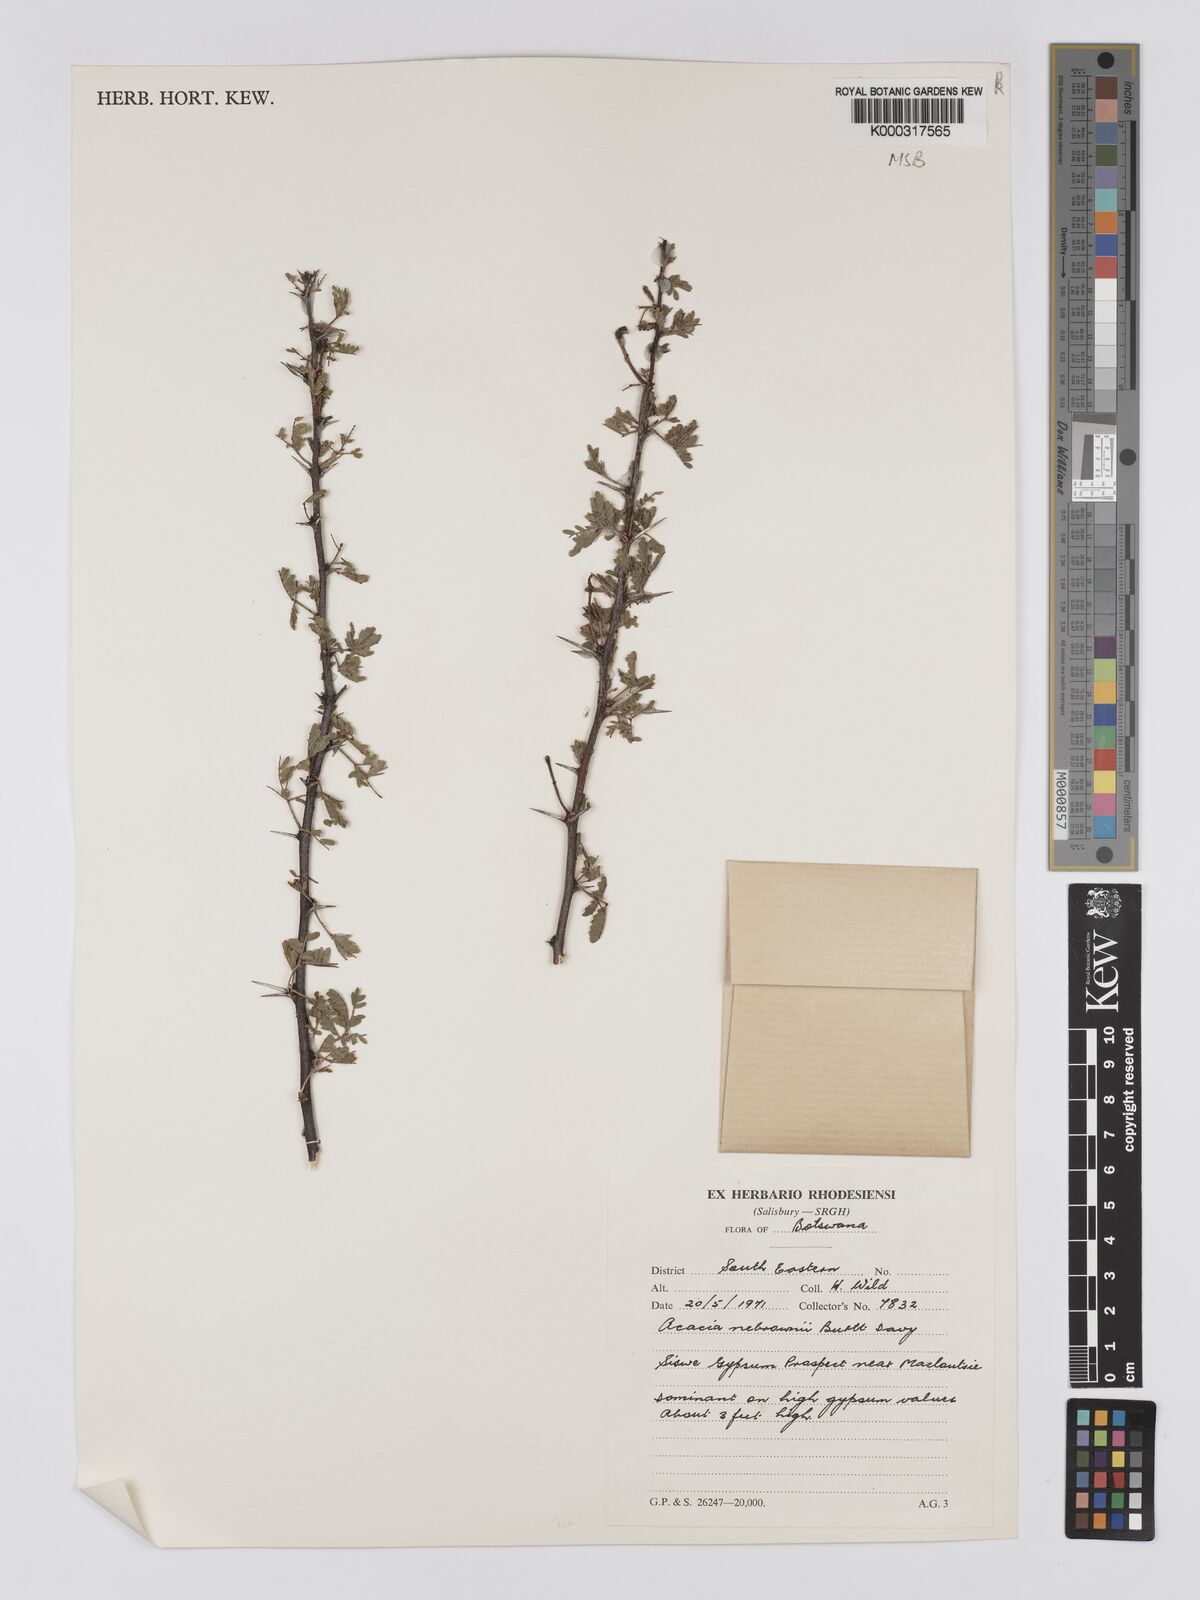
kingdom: Plantae
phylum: Tracheophyta
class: Magnoliopsida
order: Fabales
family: Fabaceae
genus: Vachellia
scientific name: Vachellia nebrownii
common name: Water acacia
